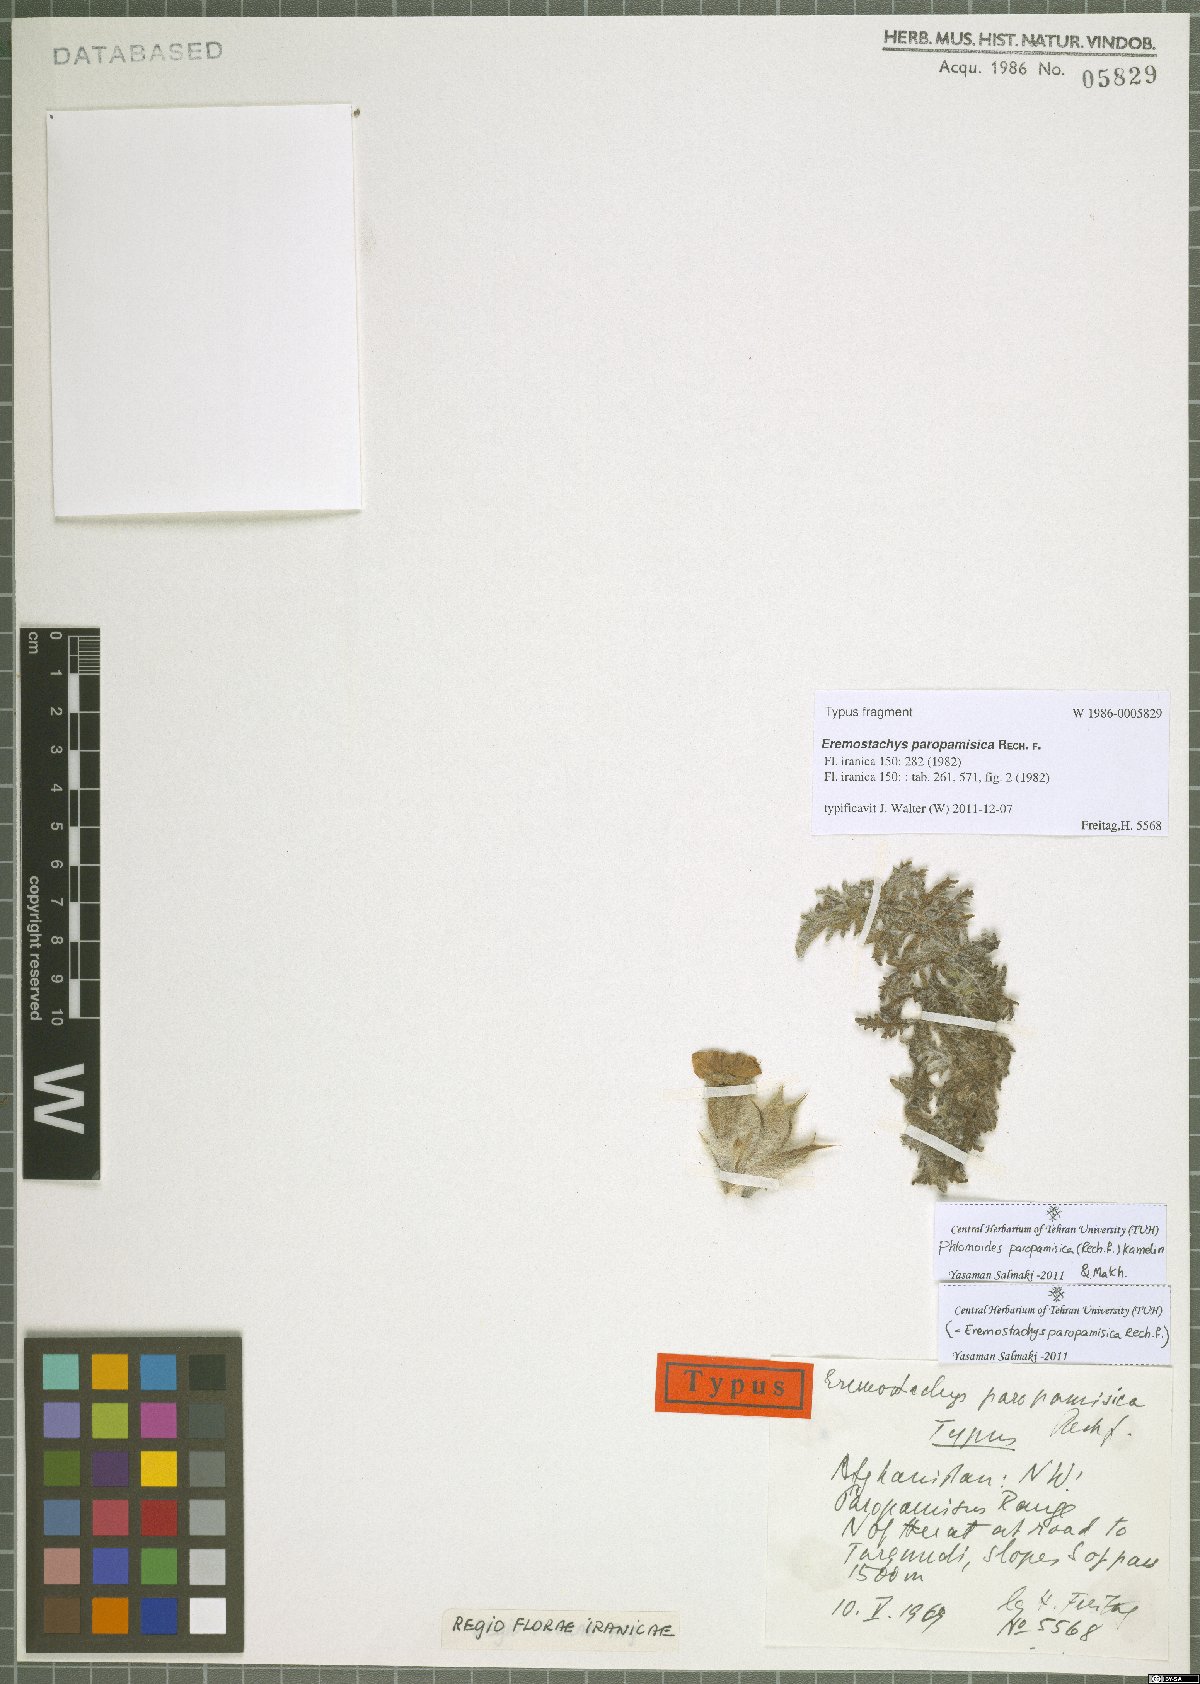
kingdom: Plantae
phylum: Tracheophyta
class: Magnoliopsida
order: Lamiales
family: Lamiaceae
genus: Phlomoides
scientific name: Phlomoides paropamisica
